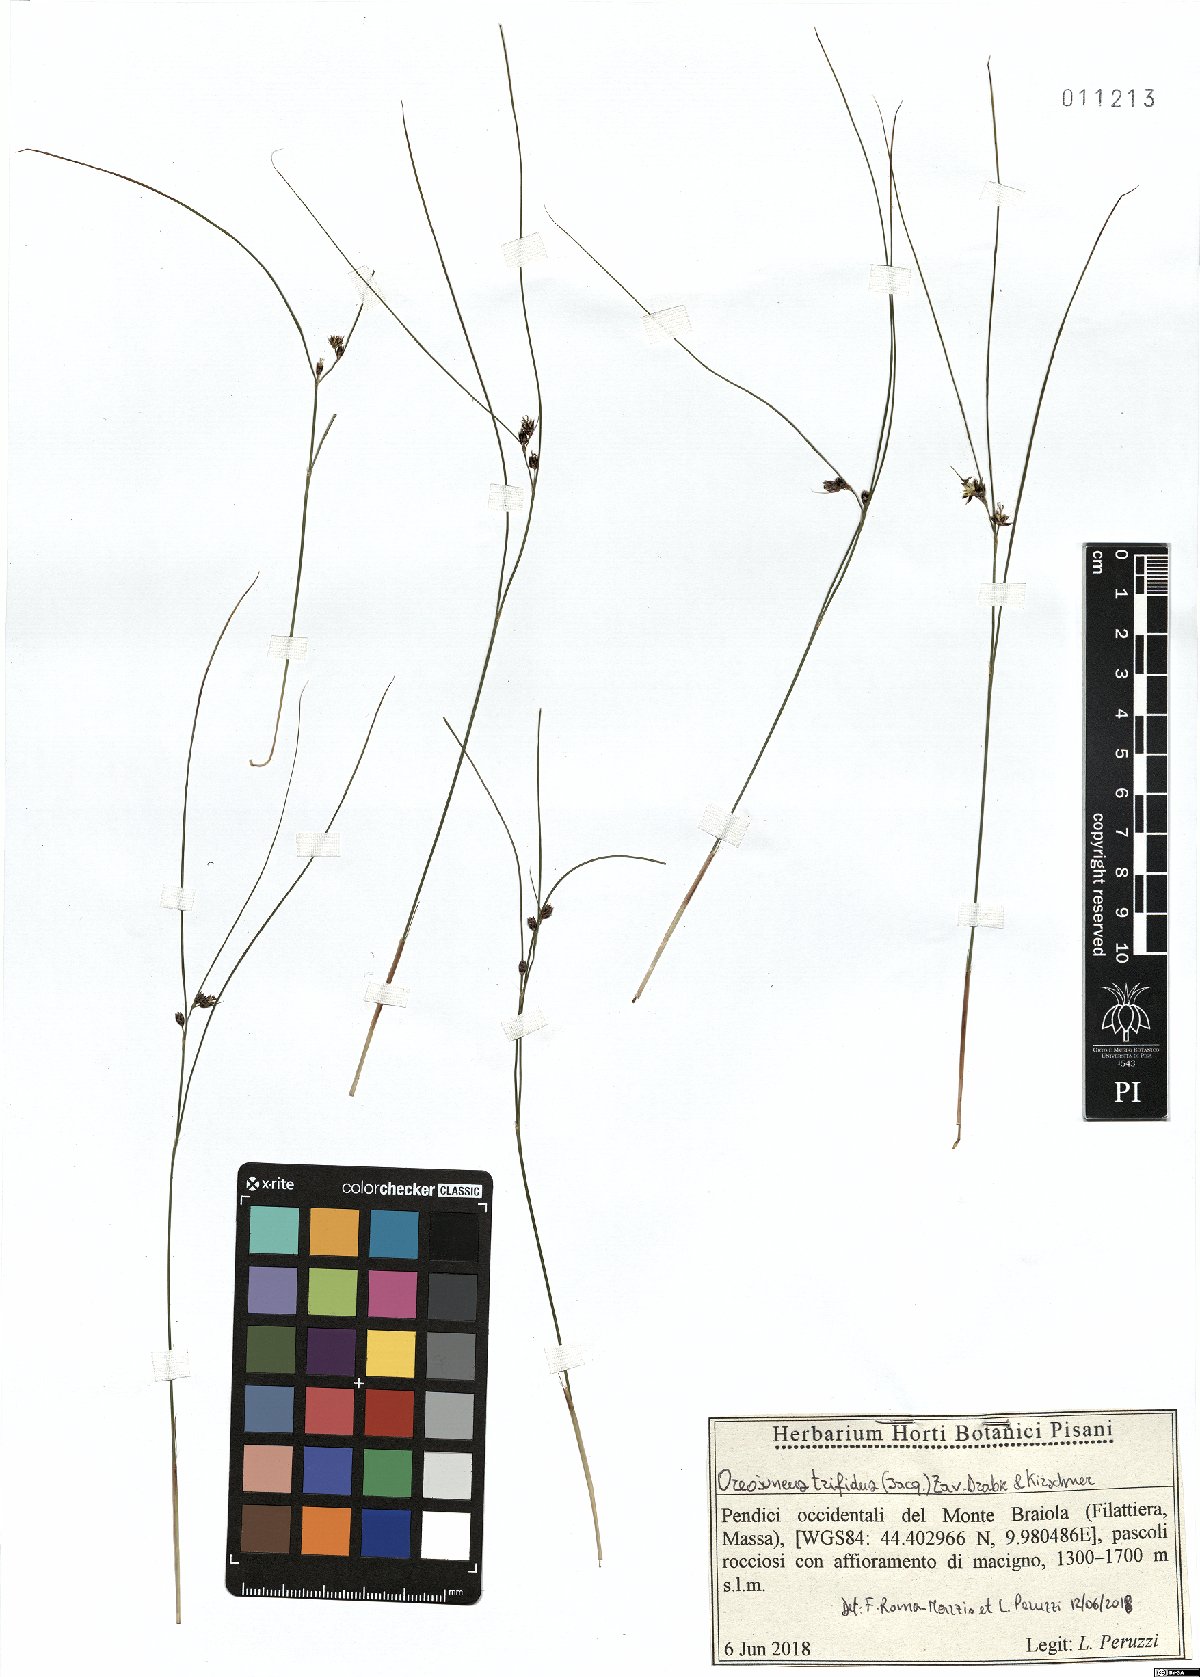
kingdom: Plantae
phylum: Tracheophyta
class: Liliopsida
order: Poales
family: Juncaceae
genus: Oreojuncus
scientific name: Oreojuncus trifidus
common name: Highland rush
